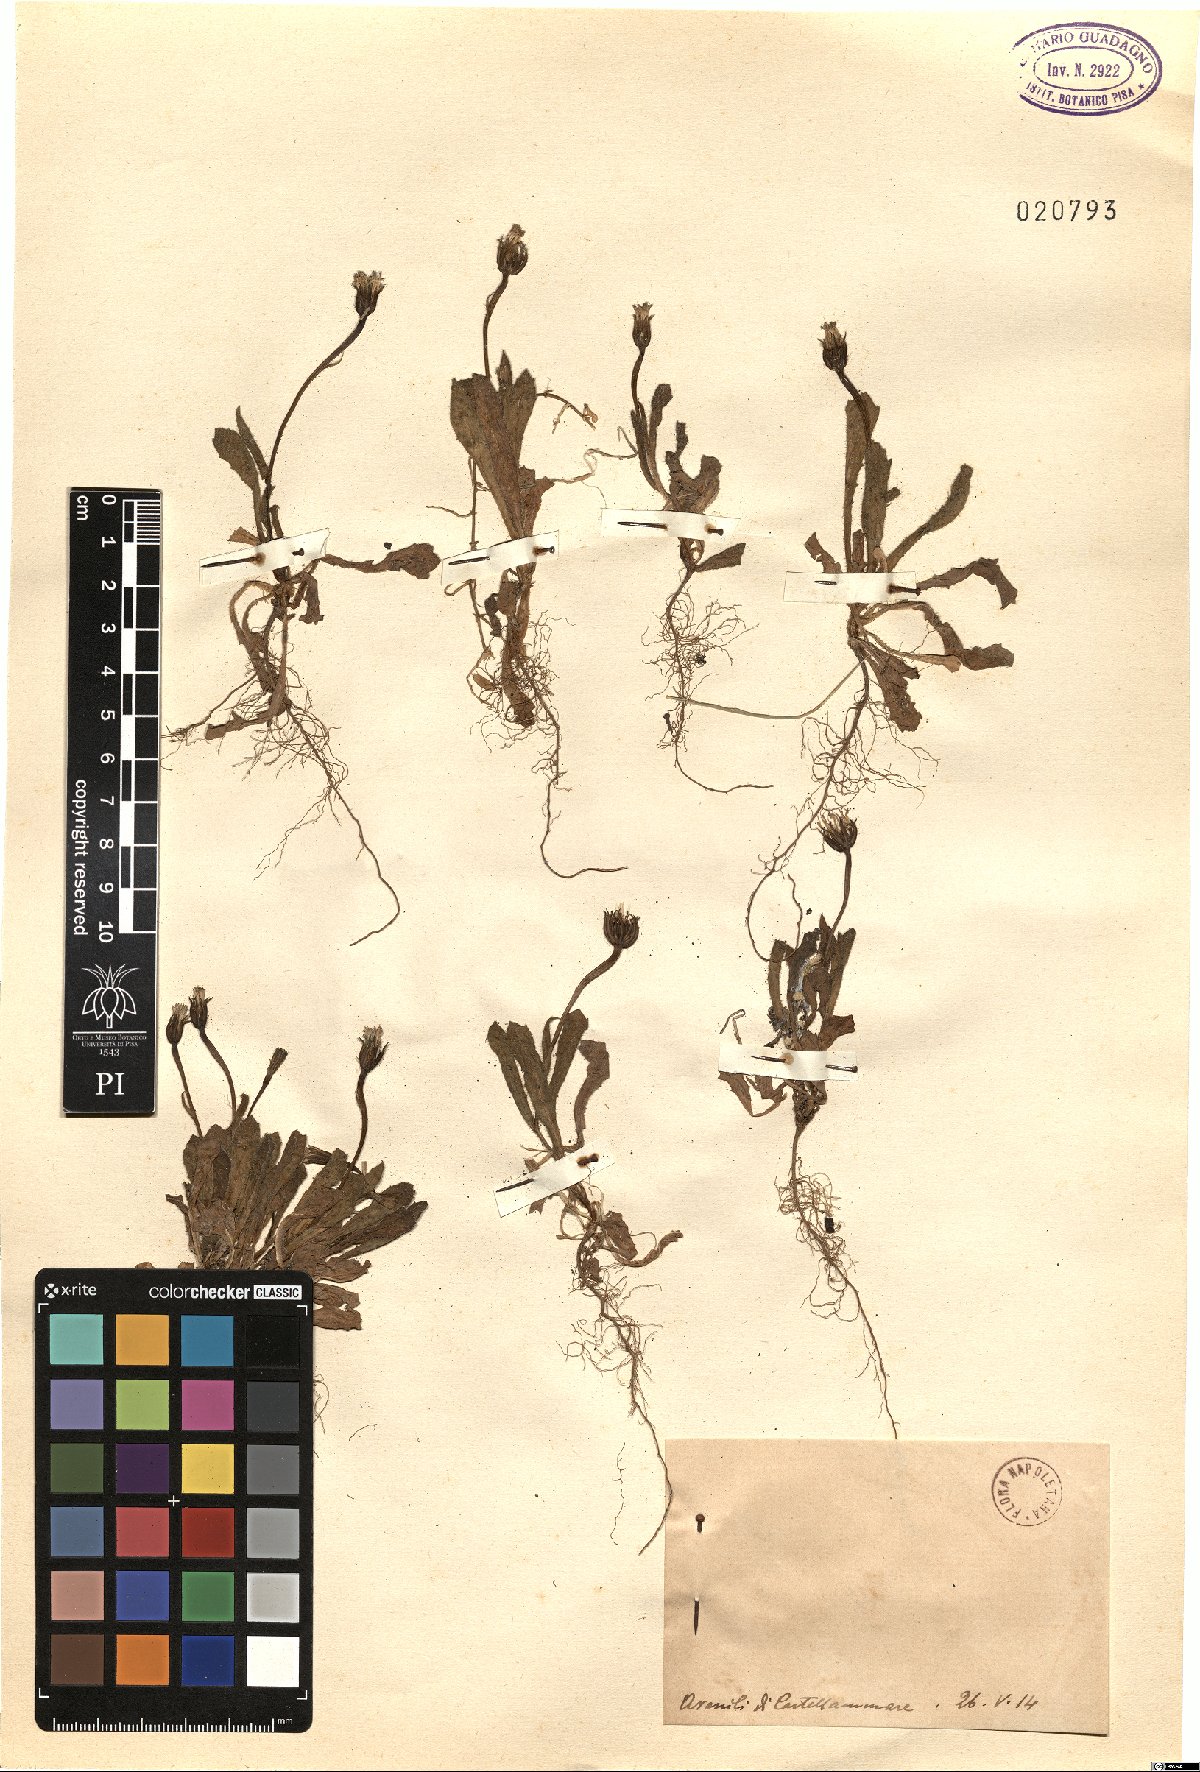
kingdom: Plantae
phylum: Tracheophyta
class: Magnoliopsida
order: Asterales
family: Asteraceae
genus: Rhagadiolus
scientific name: Rhagadiolus
